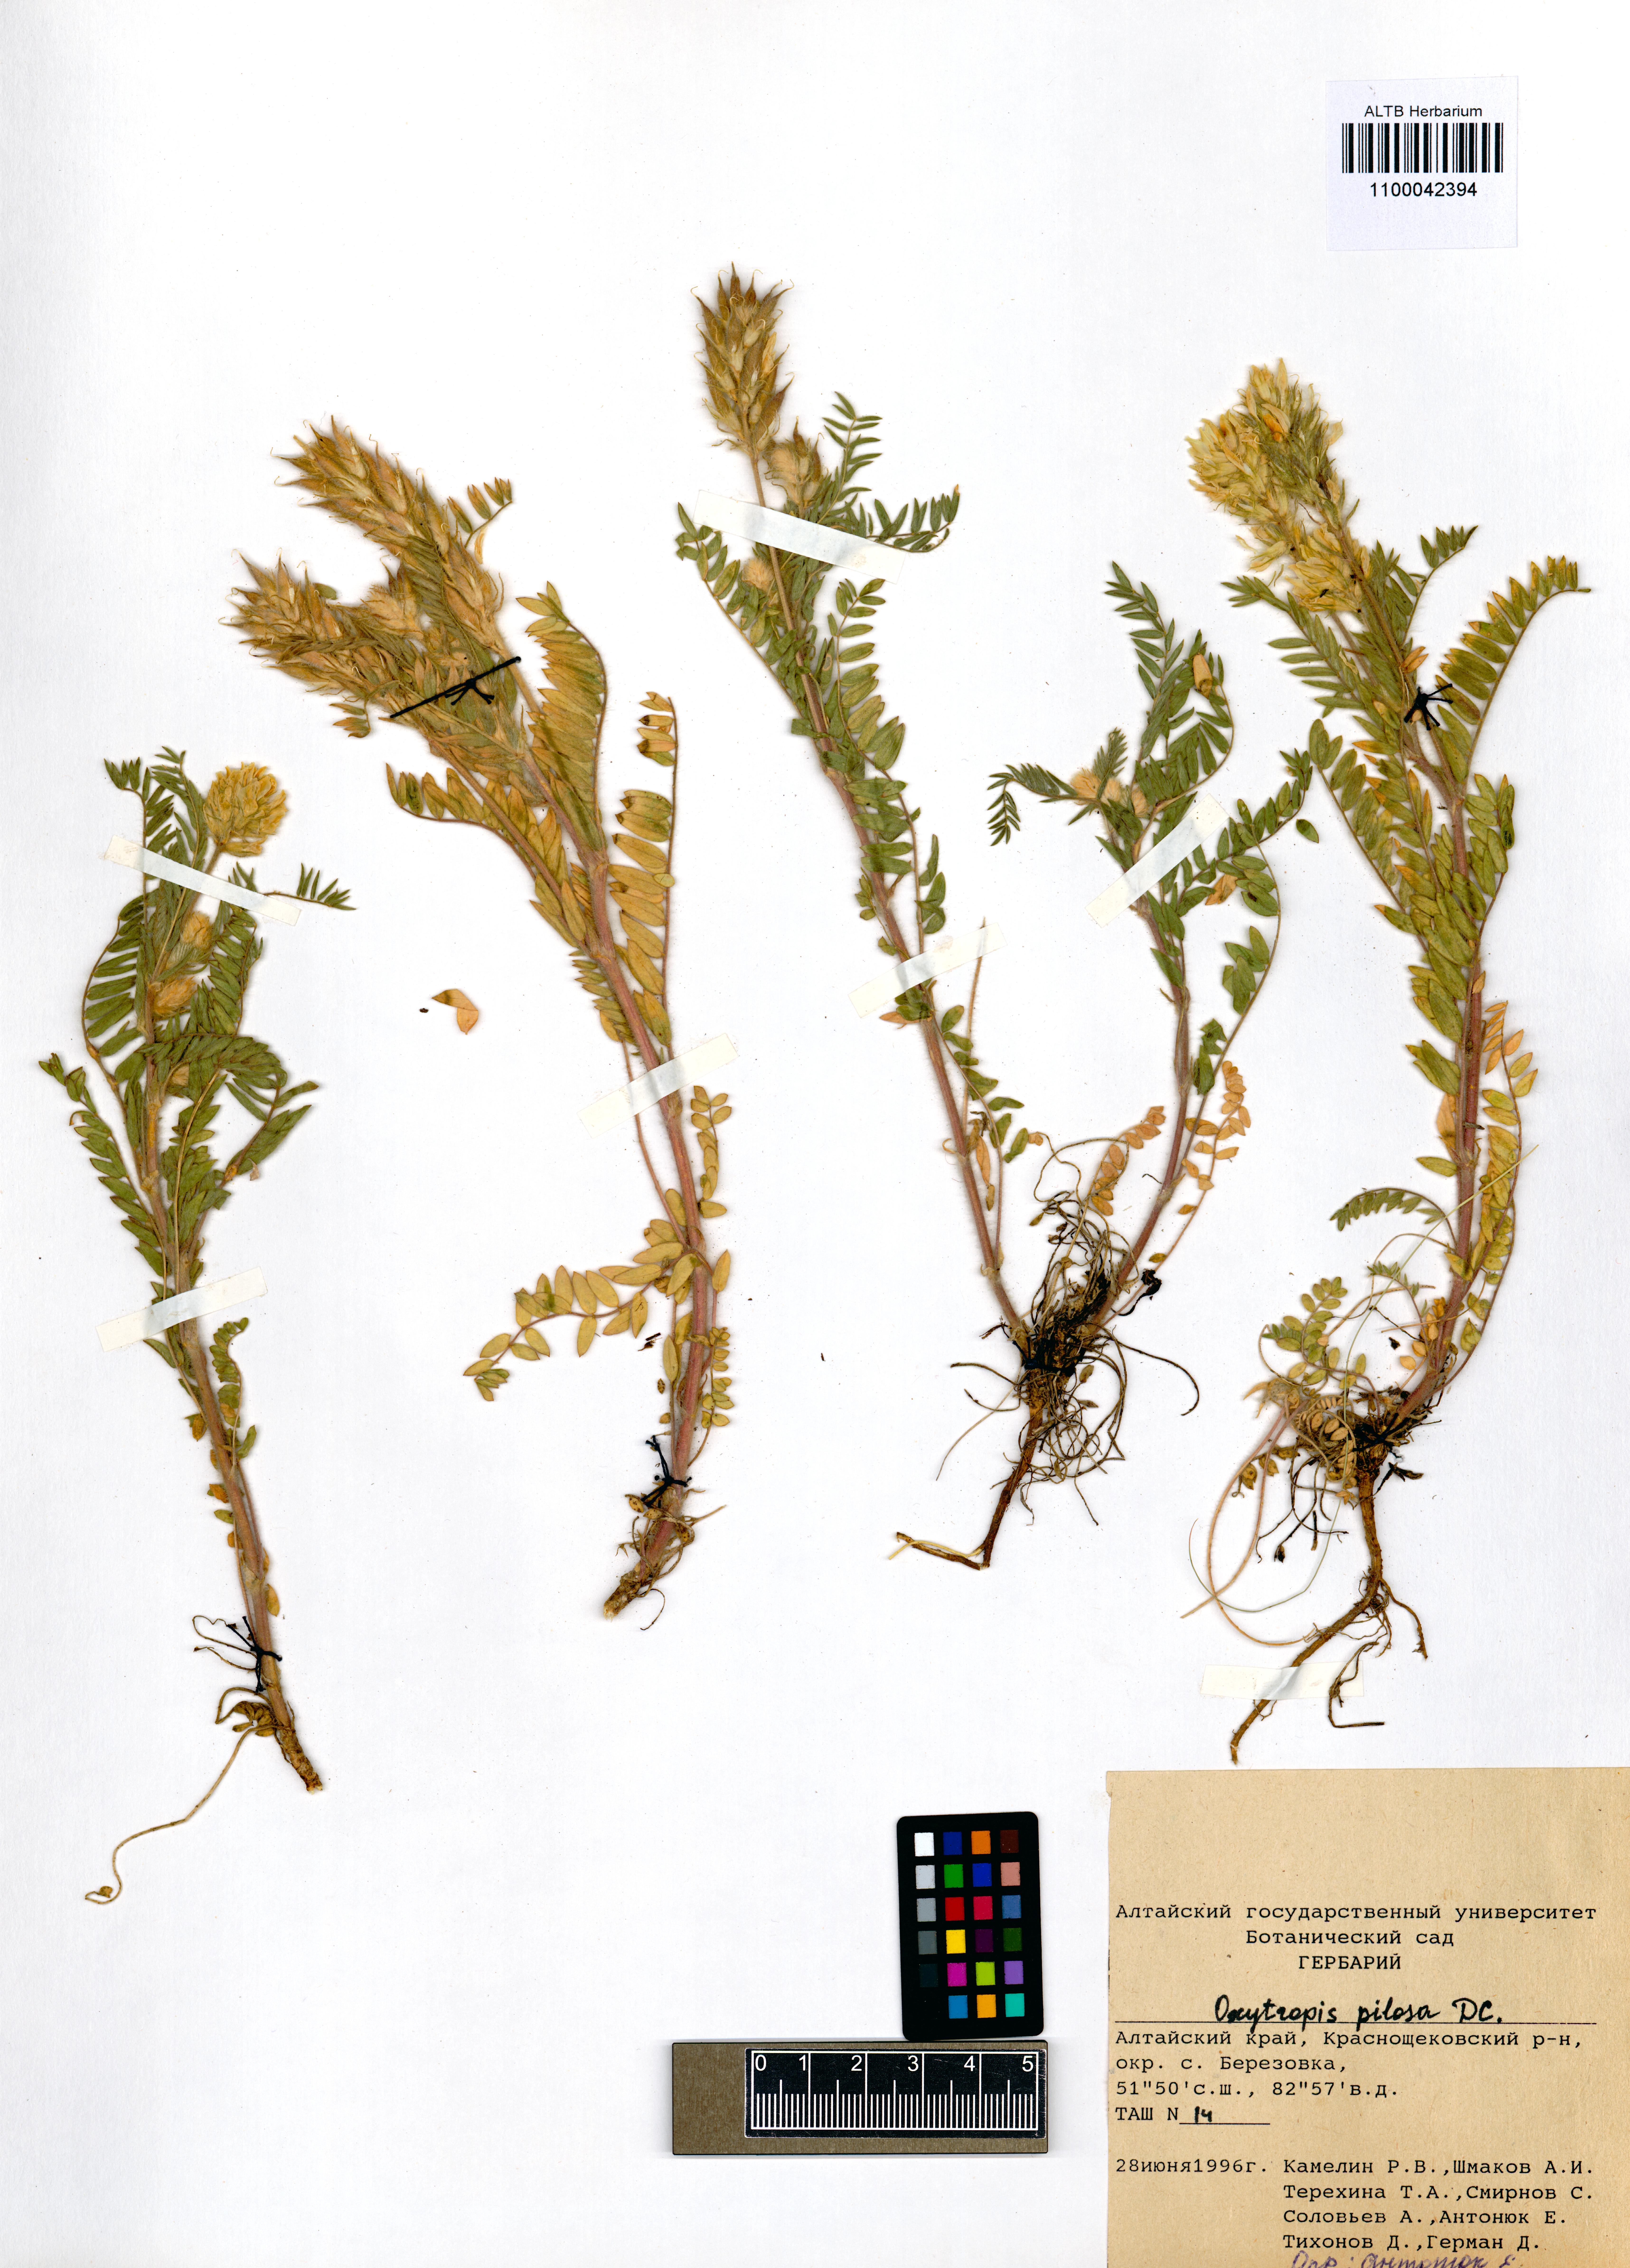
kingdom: Plantae
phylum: Tracheophyta
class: Magnoliopsida
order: Fabales
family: Fabaceae
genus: Oxytropis
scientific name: Oxytropis pilosa
